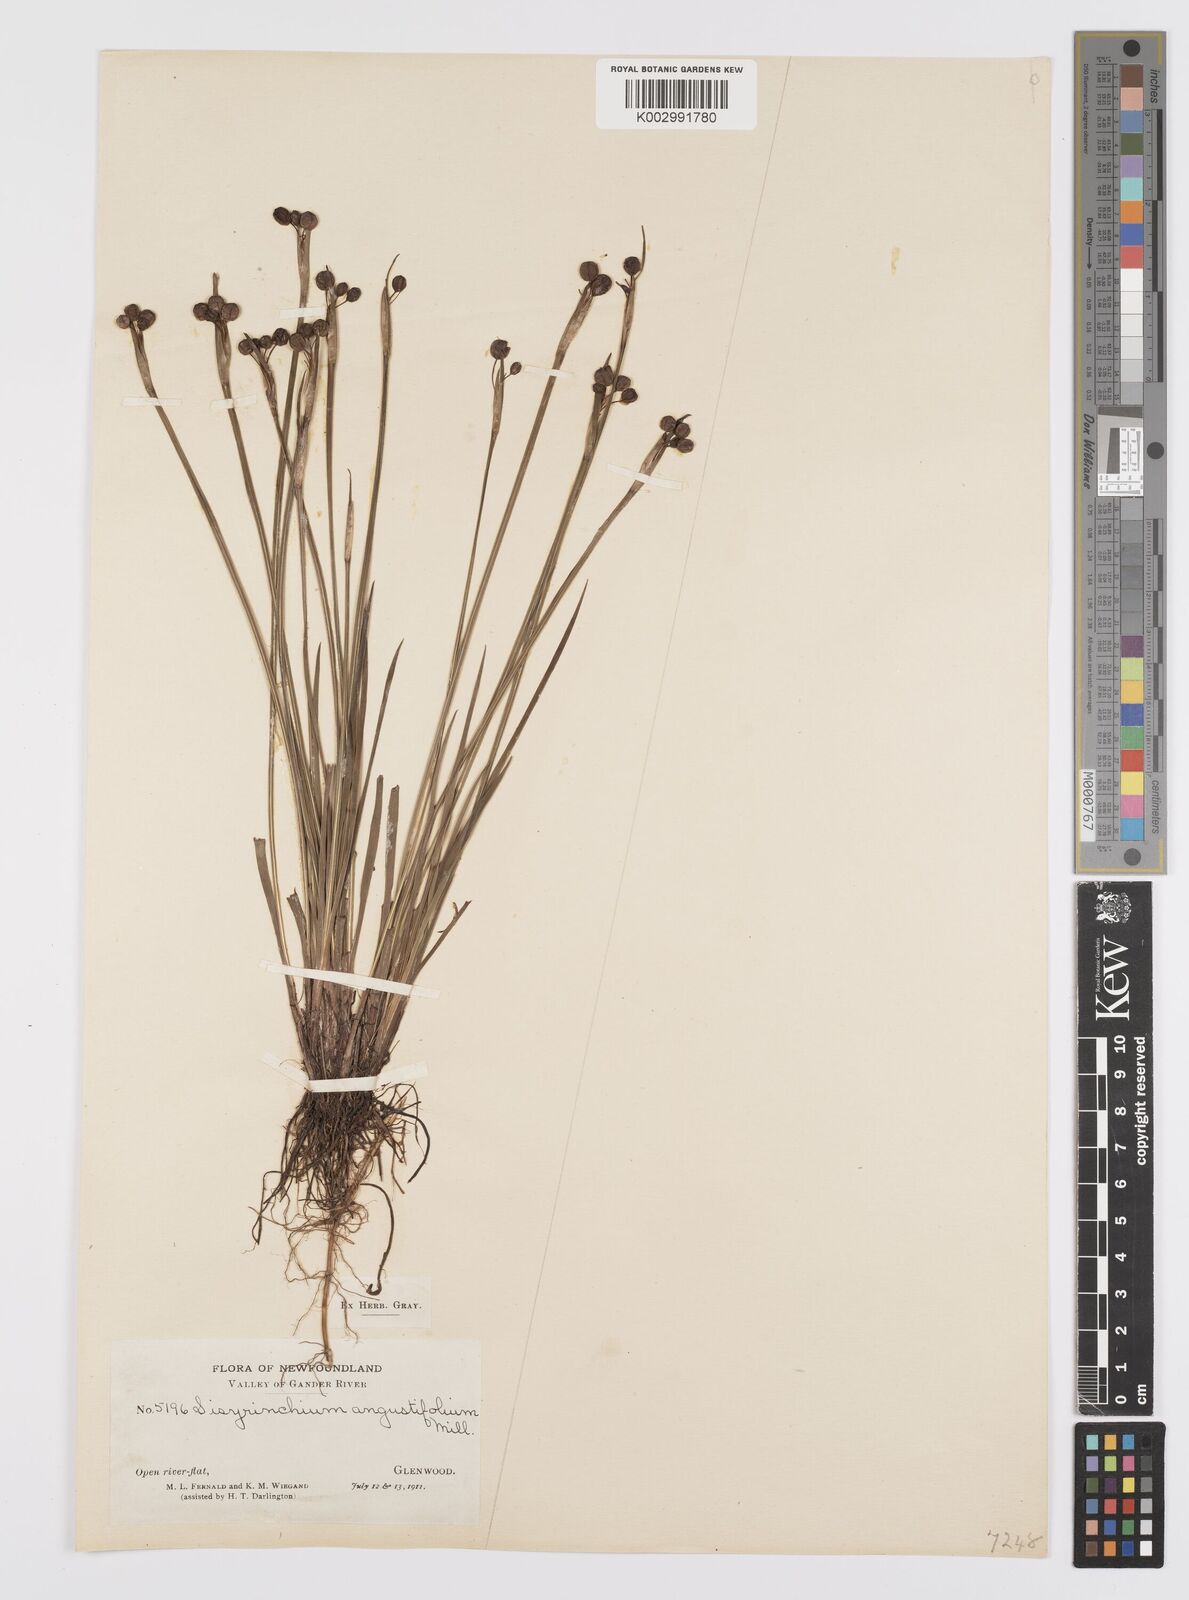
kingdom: Plantae
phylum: Tracheophyta
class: Liliopsida
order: Asparagales
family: Iridaceae
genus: Sisyrinchium
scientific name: Sisyrinchium bermudiana
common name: Blue-eyed-grass
